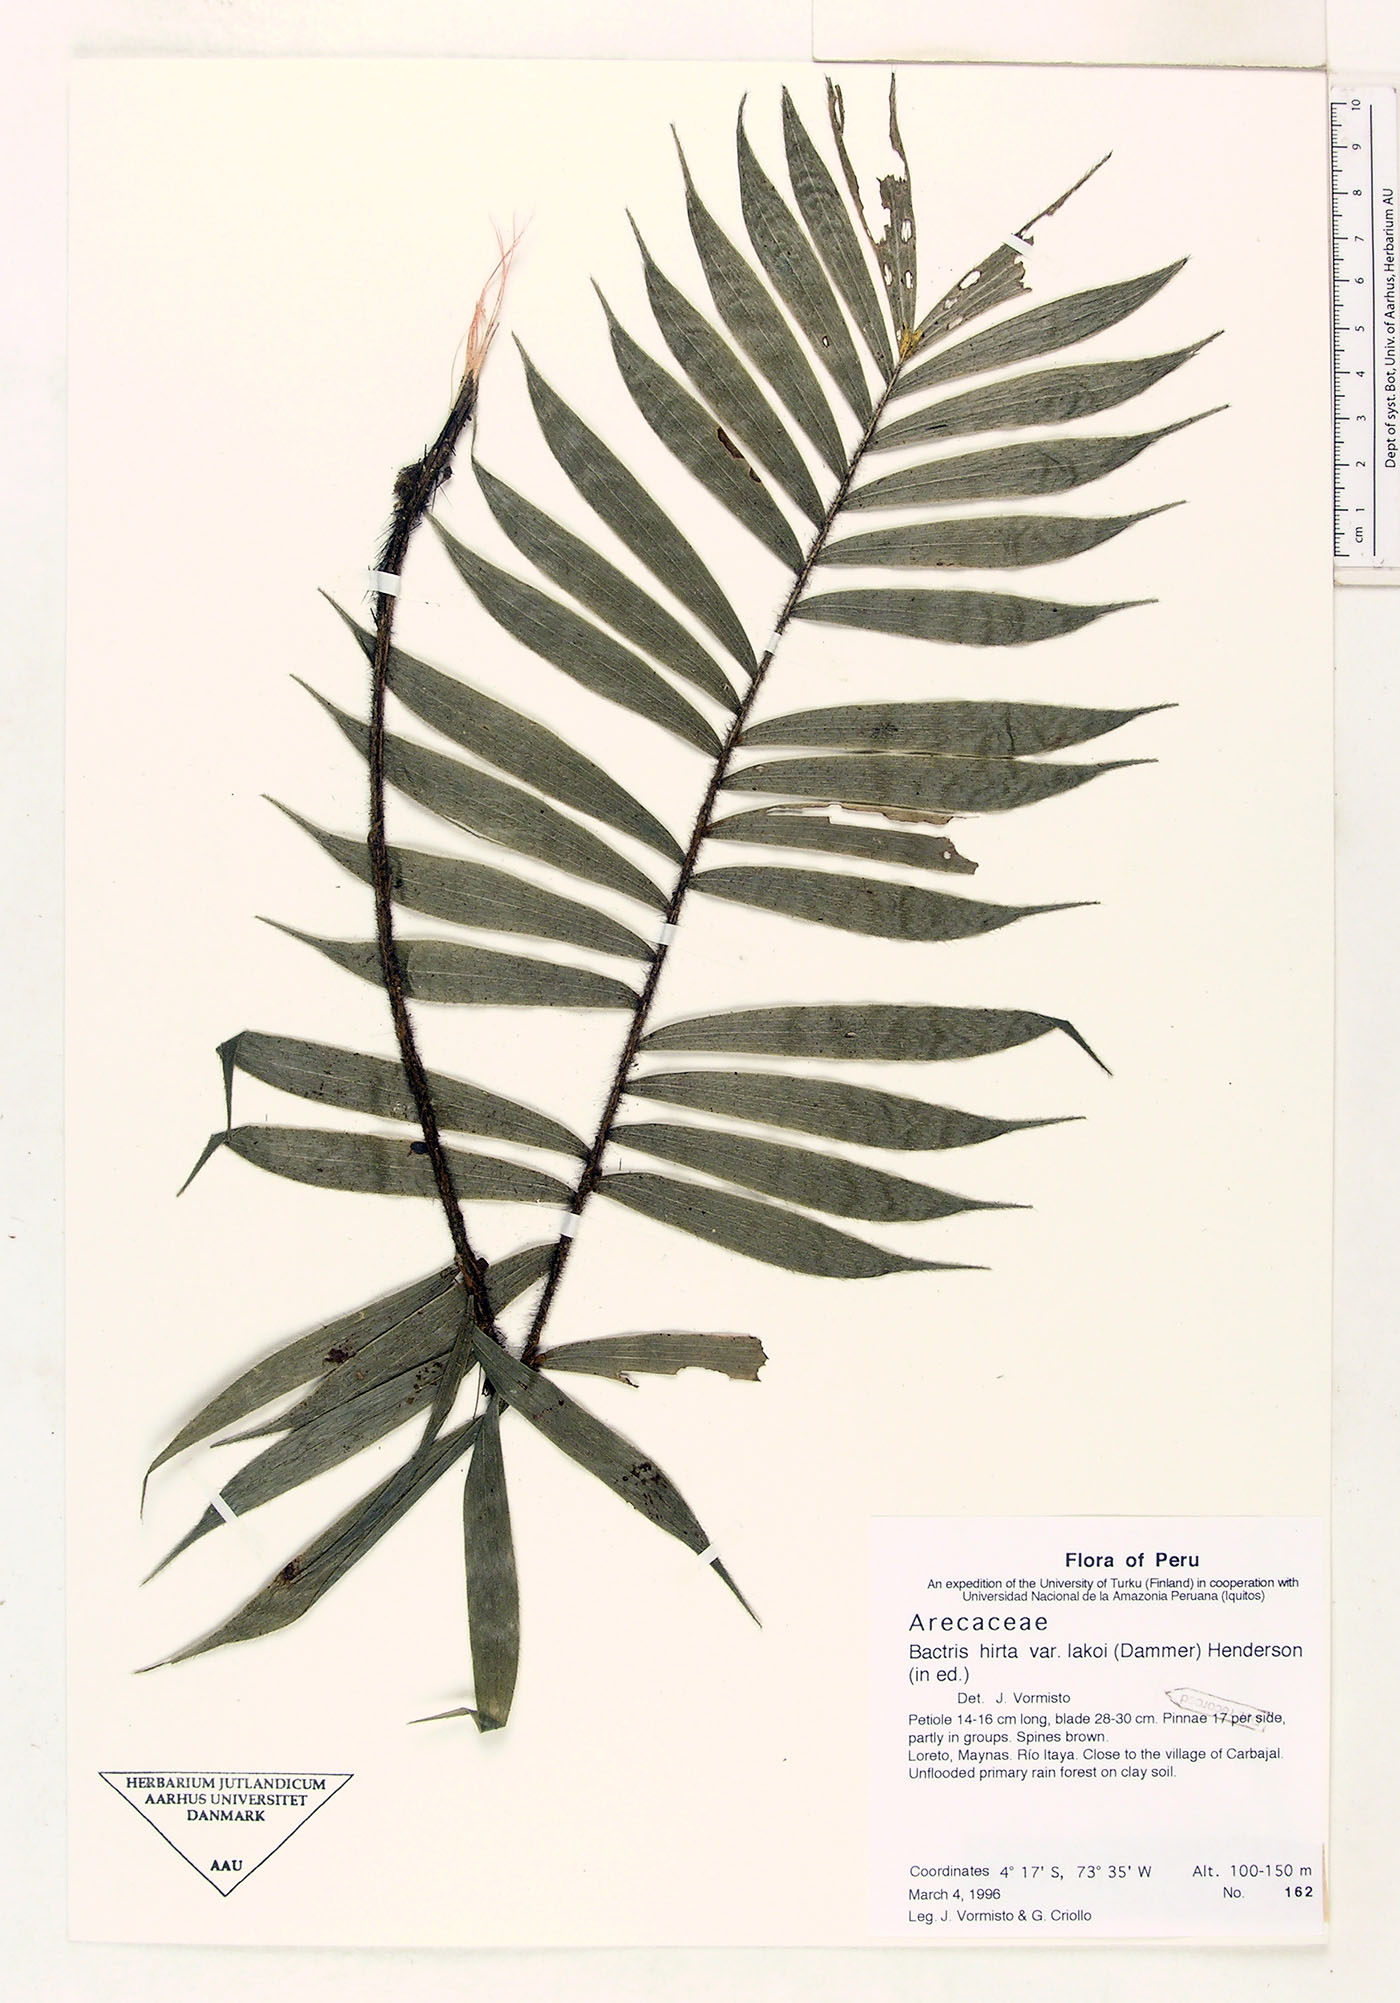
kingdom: Plantae
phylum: Tracheophyta
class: Liliopsida
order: Arecales
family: Arecaceae
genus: Bactris
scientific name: Bactris hirta
